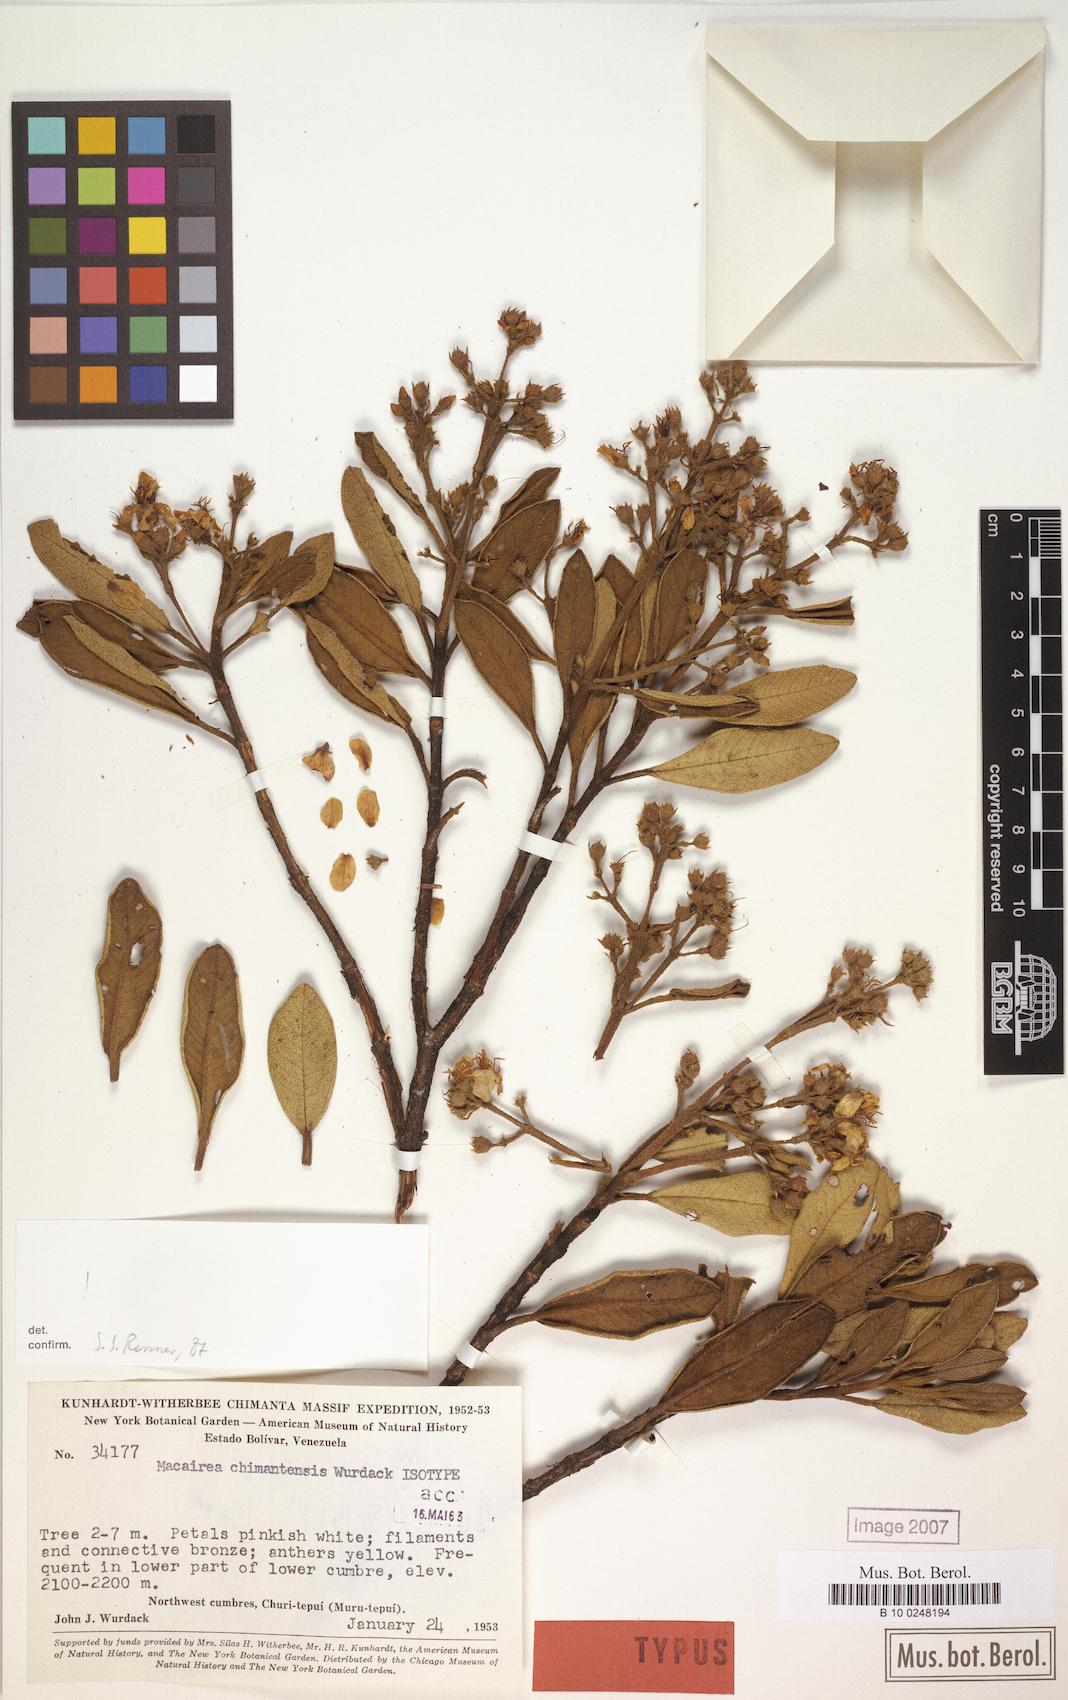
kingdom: Plantae
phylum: Tracheophyta
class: Magnoliopsida
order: Myrtales
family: Melastomataceae
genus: Macairea
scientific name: Macairea chimantensis
